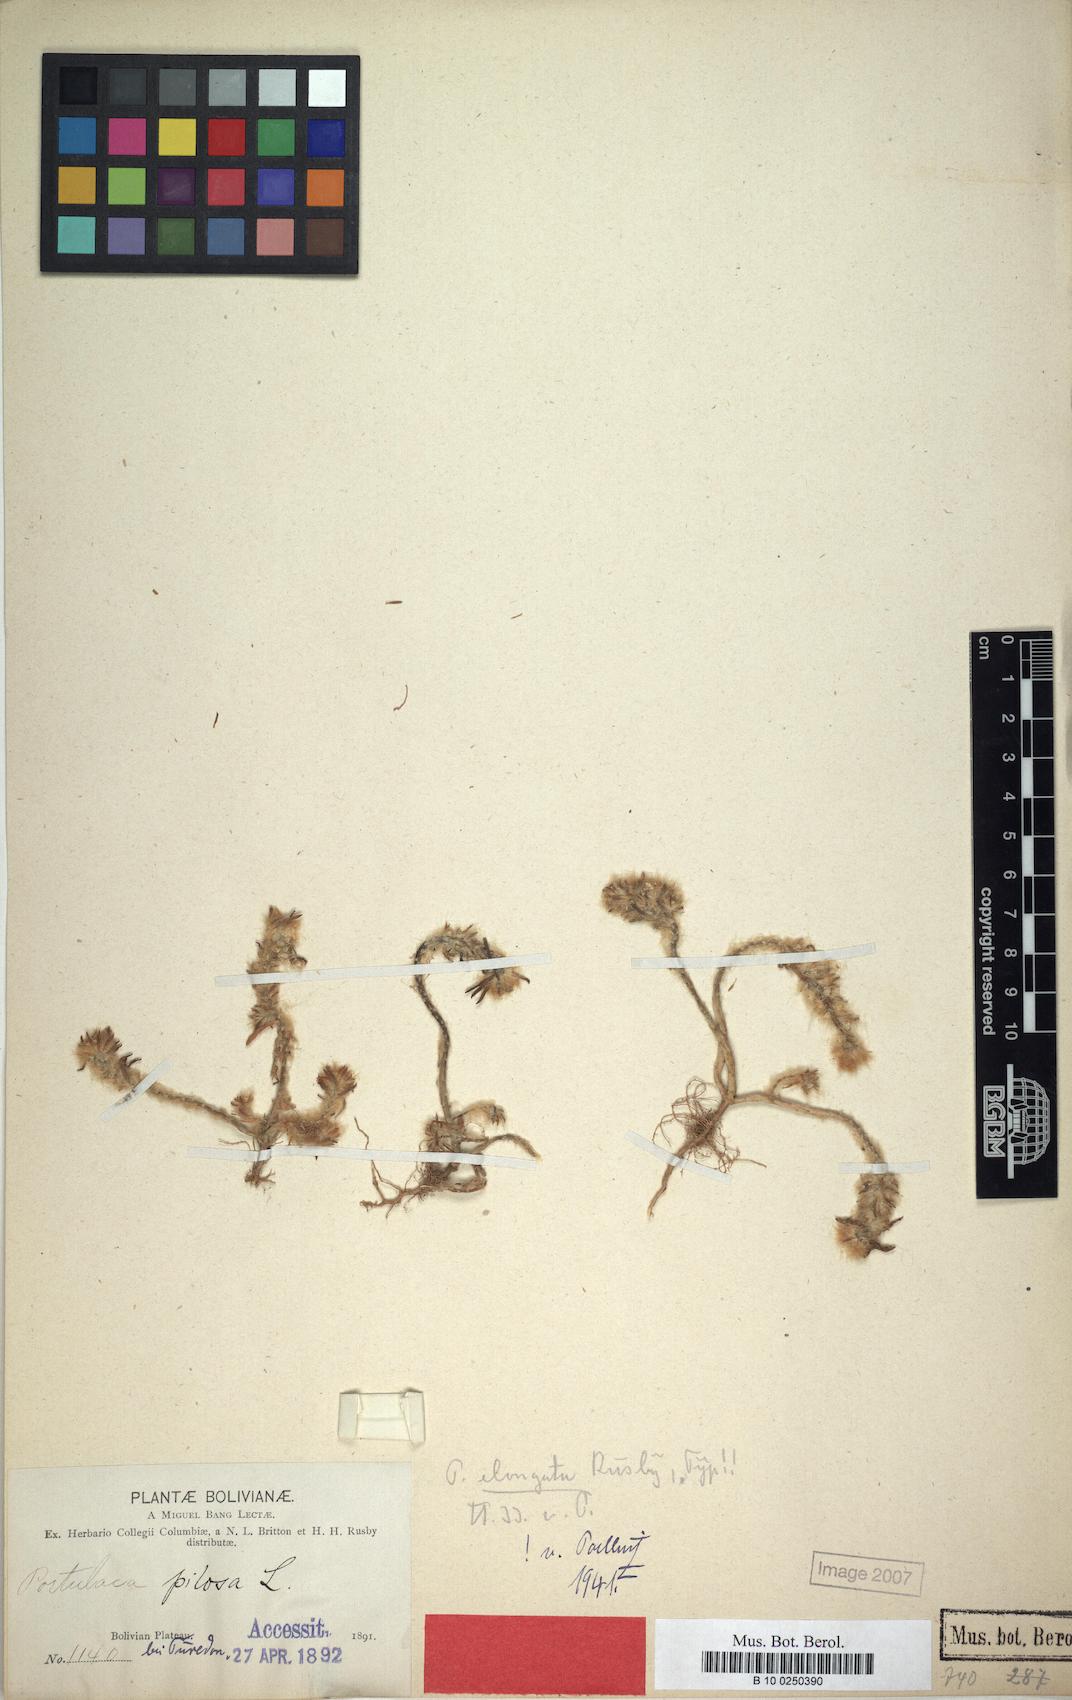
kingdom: Plantae
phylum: Tracheophyta
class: Magnoliopsida
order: Caryophyllales
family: Portulacaceae
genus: Portulaca
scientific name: Portulaca elongata
